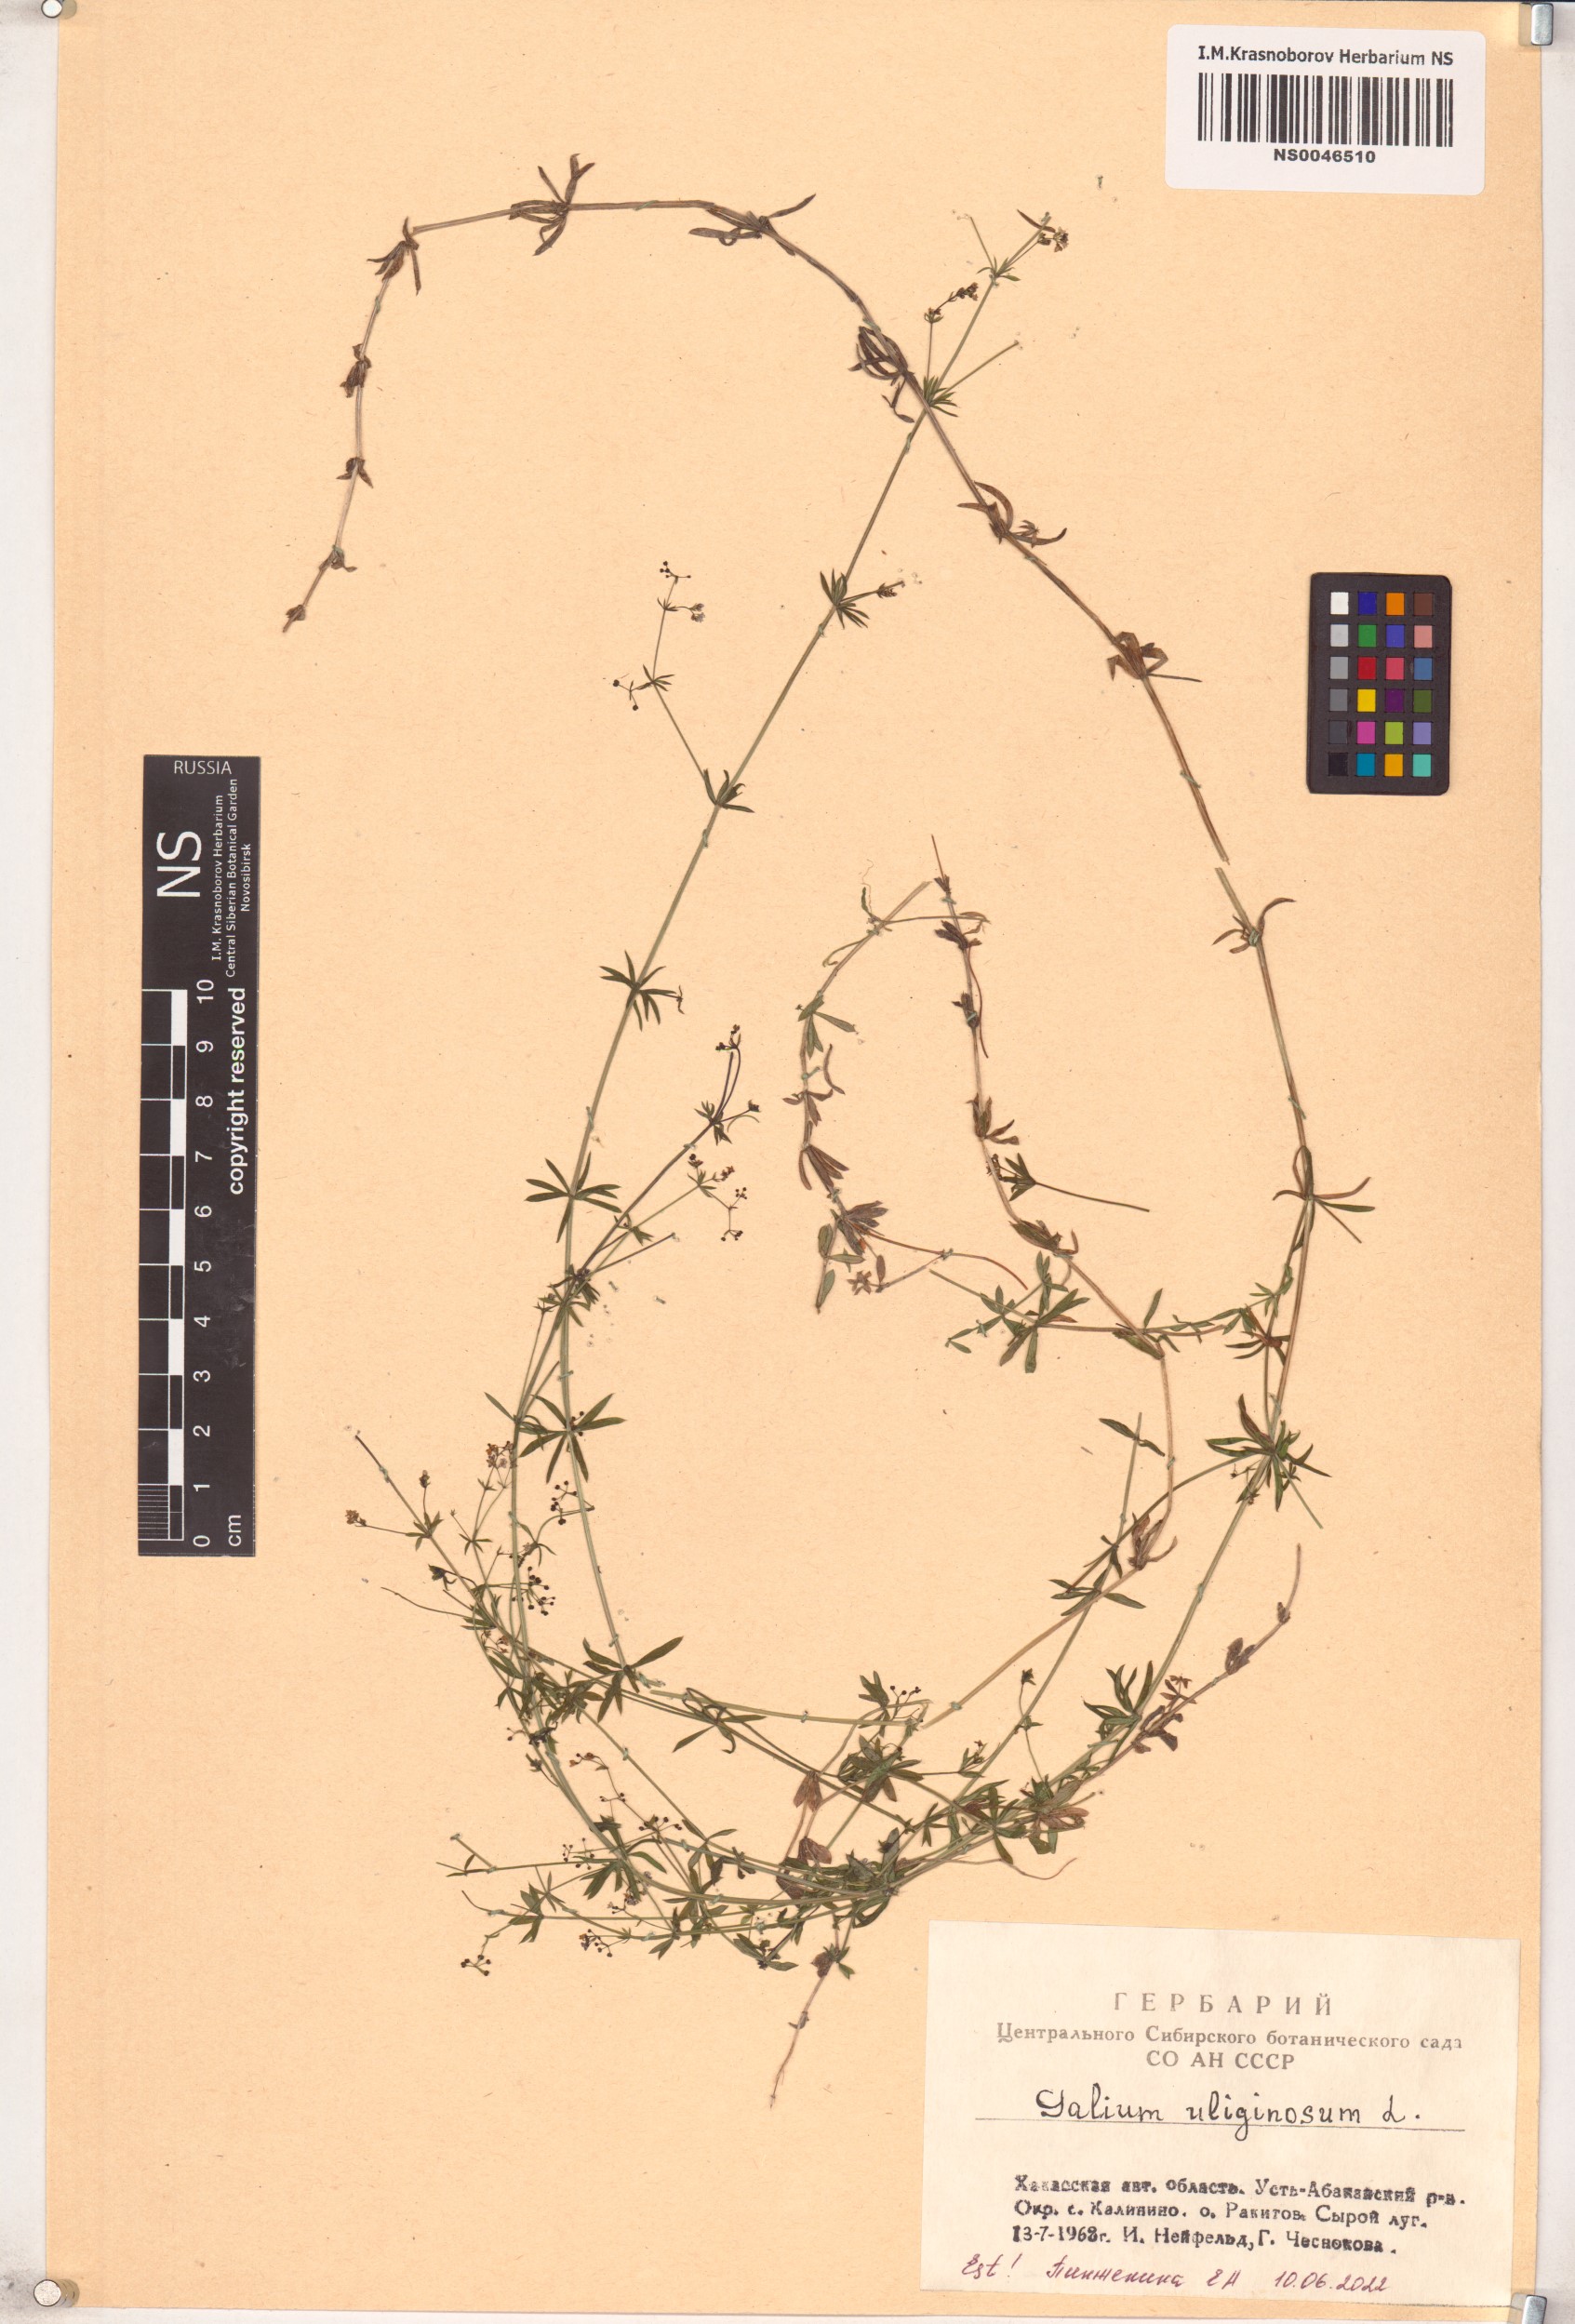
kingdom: Plantae
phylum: Tracheophyta
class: Magnoliopsida
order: Gentianales
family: Rubiaceae
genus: Galium
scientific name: Galium uliginosum
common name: Fen bedstraw
